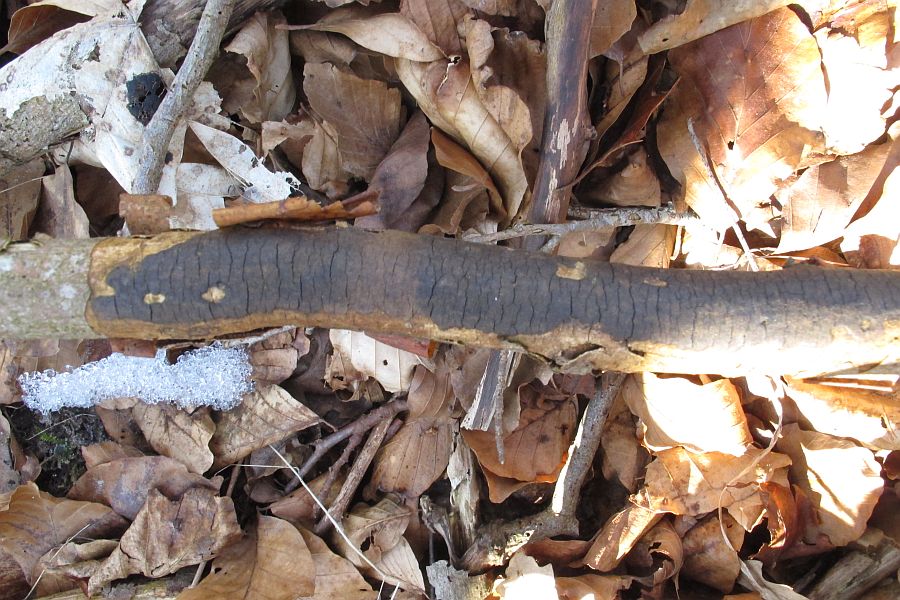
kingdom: Fungi
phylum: Ascomycota
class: Sordariomycetes
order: Xylariales
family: Diatrypaceae
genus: Diatrype
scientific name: Diatrype decorticata
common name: barksprænger-kulskorpe
